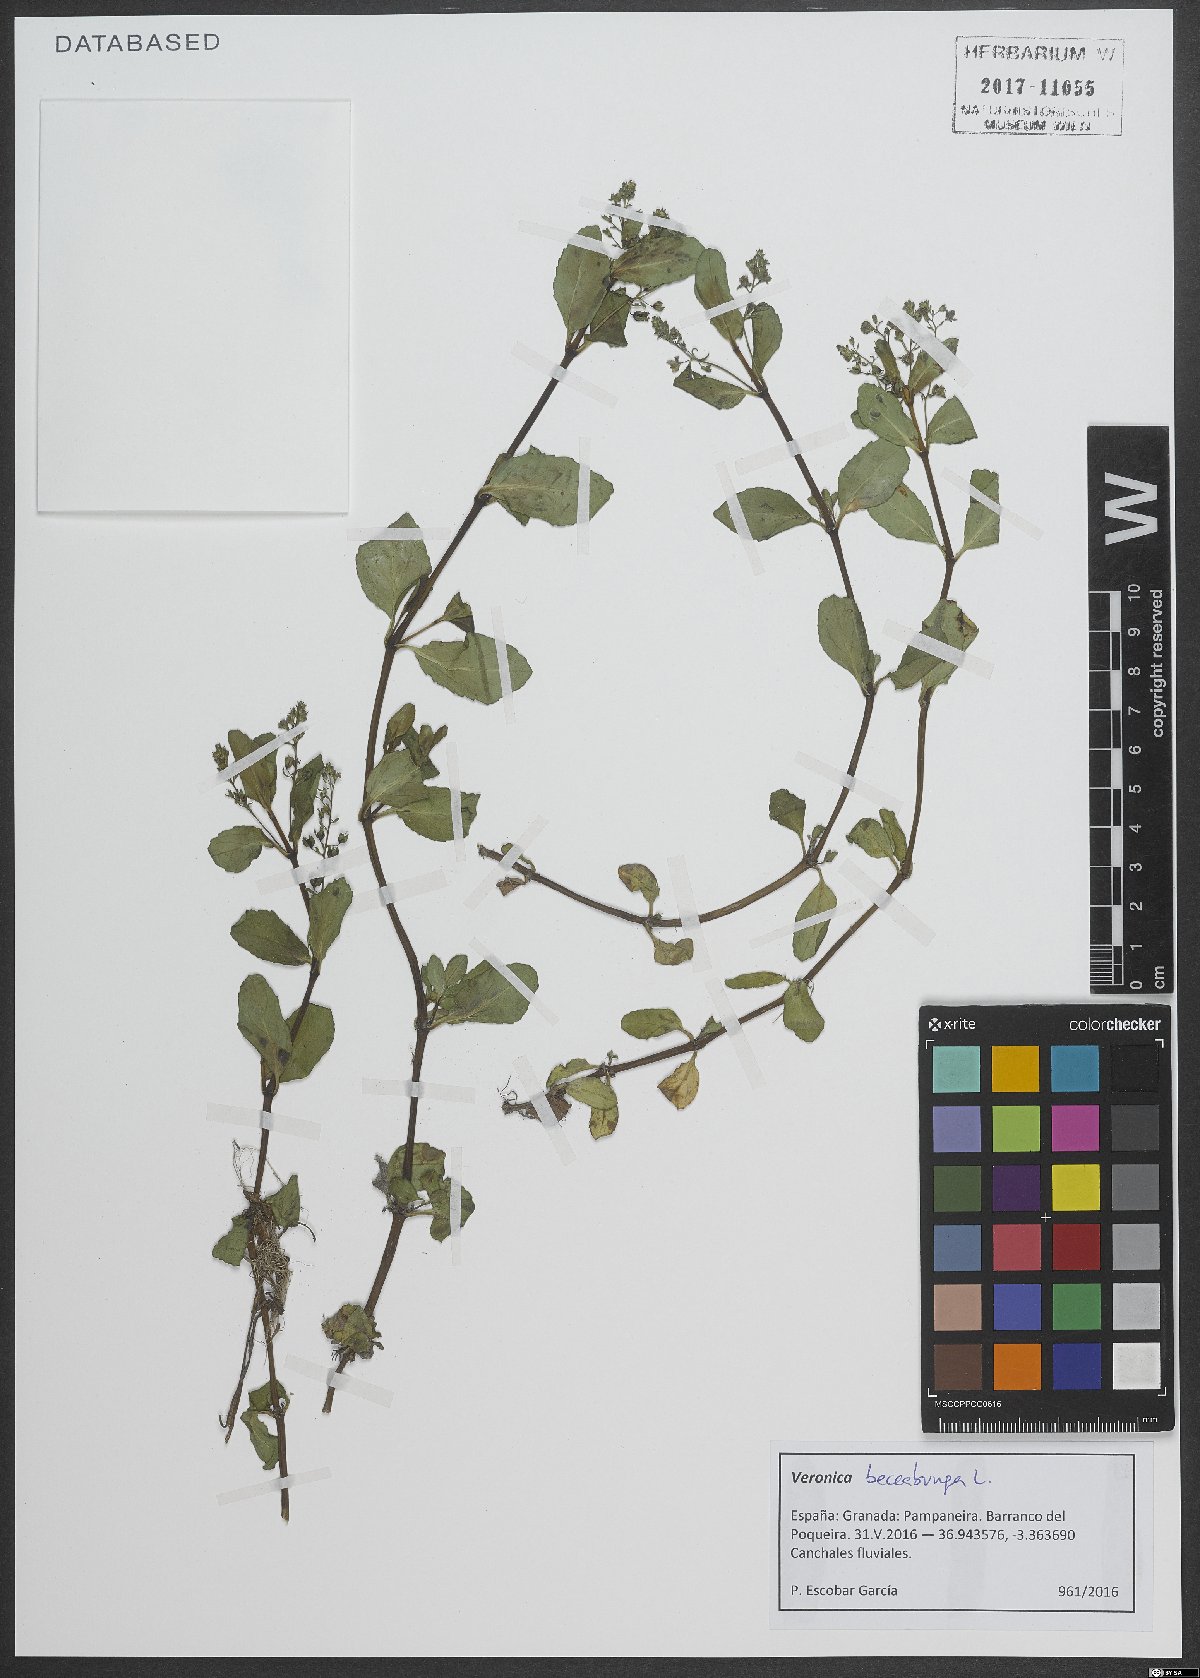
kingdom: Plantae
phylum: Tracheophyta
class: Magnoliopsida
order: Lamiales
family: Plantaginaceae
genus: Veronica
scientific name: Veronica beccabunga
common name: Brooklime
